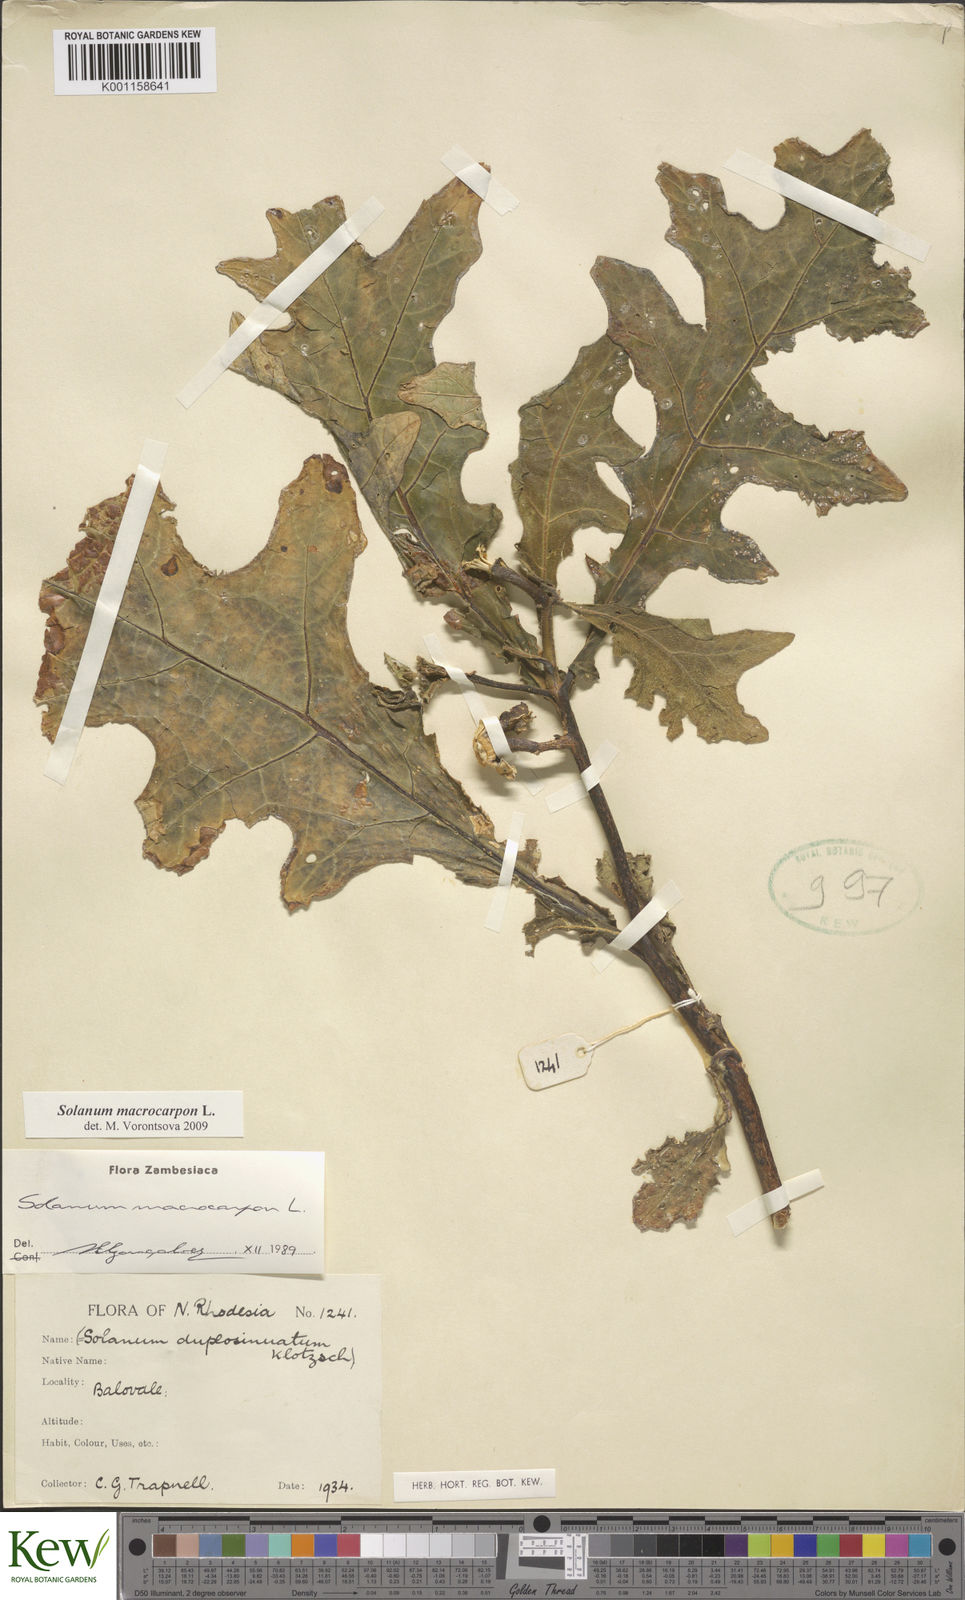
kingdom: Plantae
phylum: Tracheophyta
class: Magnoliopsida
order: Solanales
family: Solanaceae
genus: Solanum
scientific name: Solanum macrocarpon
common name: African eggplant
